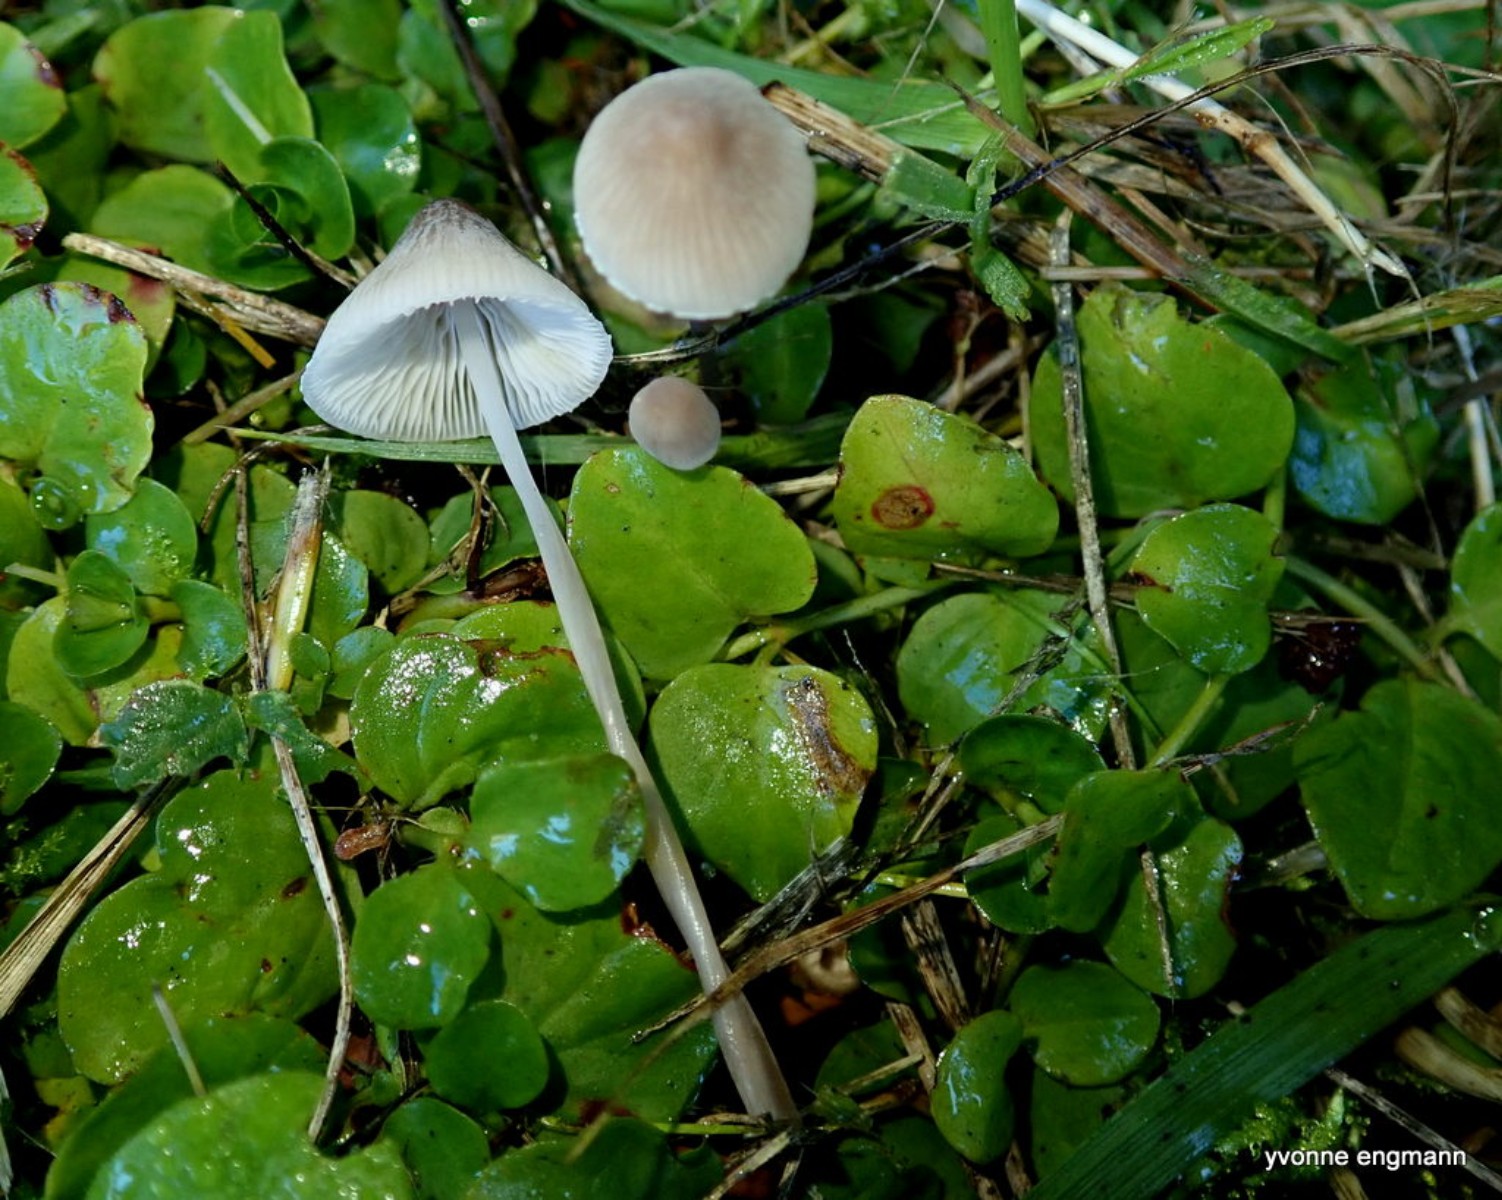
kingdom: Fungi
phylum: Basidiomycota
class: Agaricomycetes
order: Agaricales
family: Mycenaceae
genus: Mycena
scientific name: Mycena filopes
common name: jod-huesvamp
